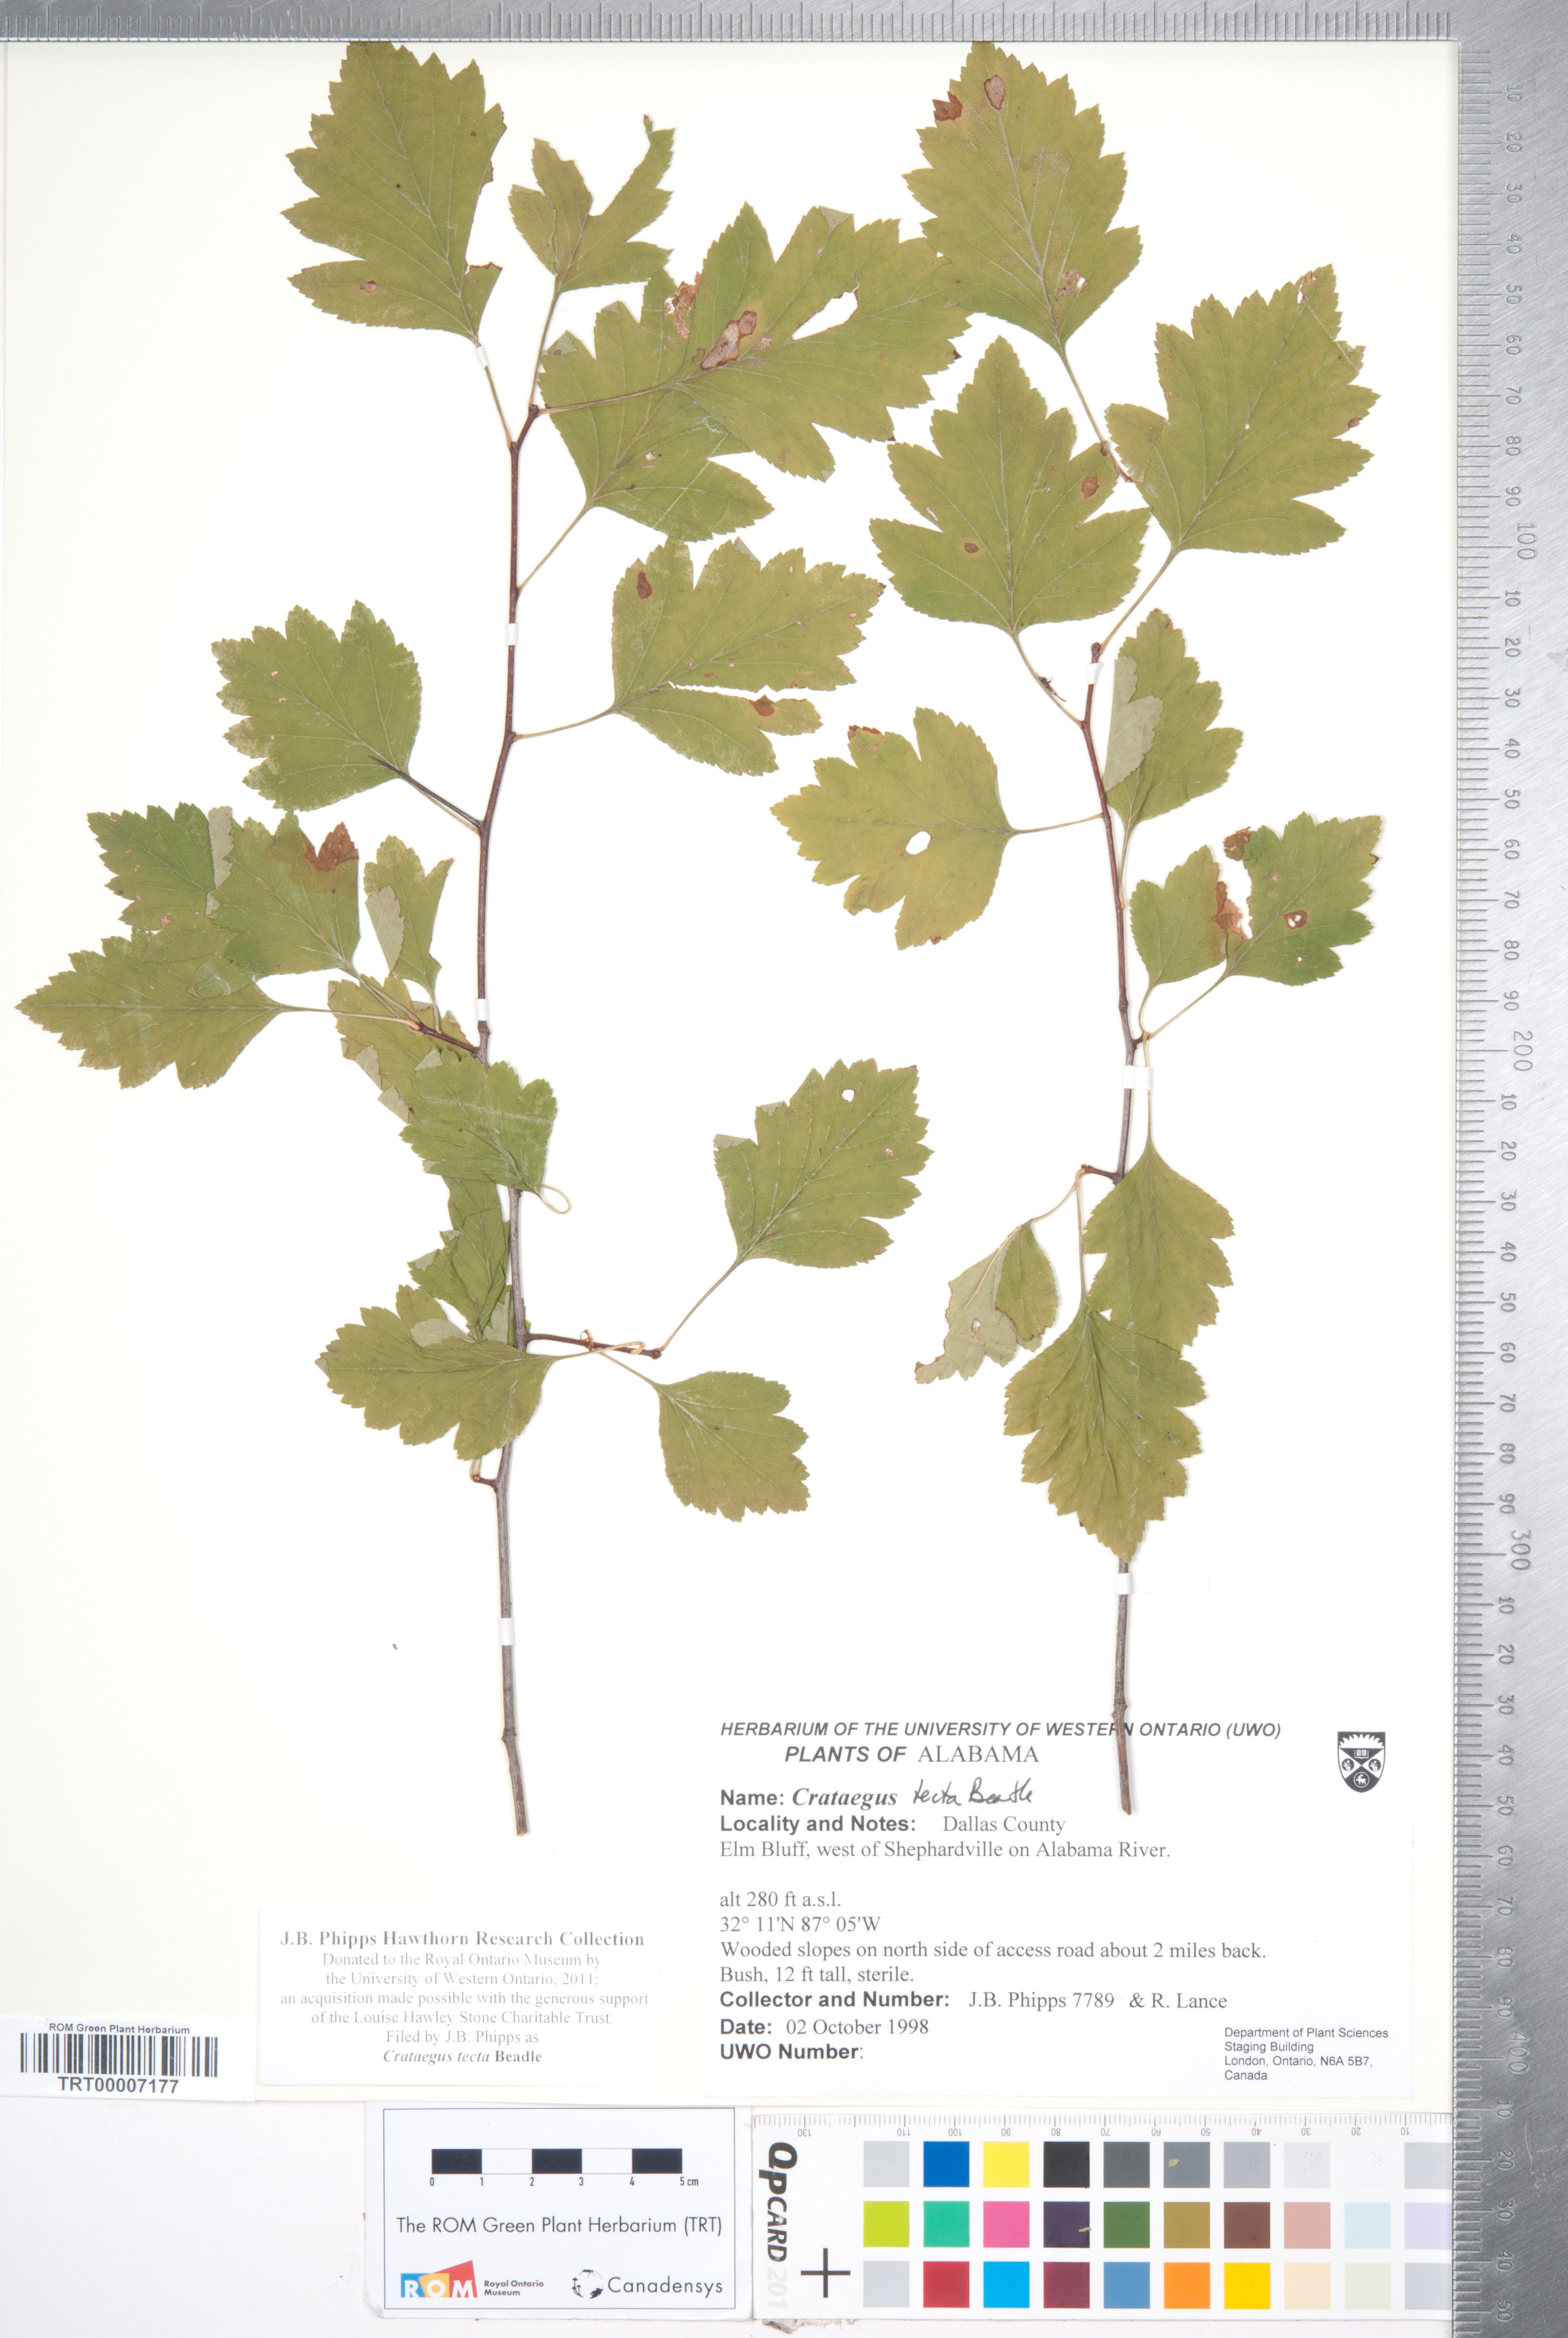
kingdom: Plantae
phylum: Tracheophyta
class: Magnoliopsida
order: Rosales
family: Rosaceae
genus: Crataegus
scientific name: Crataegus pulcherrima
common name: Beautiful hawthorn
